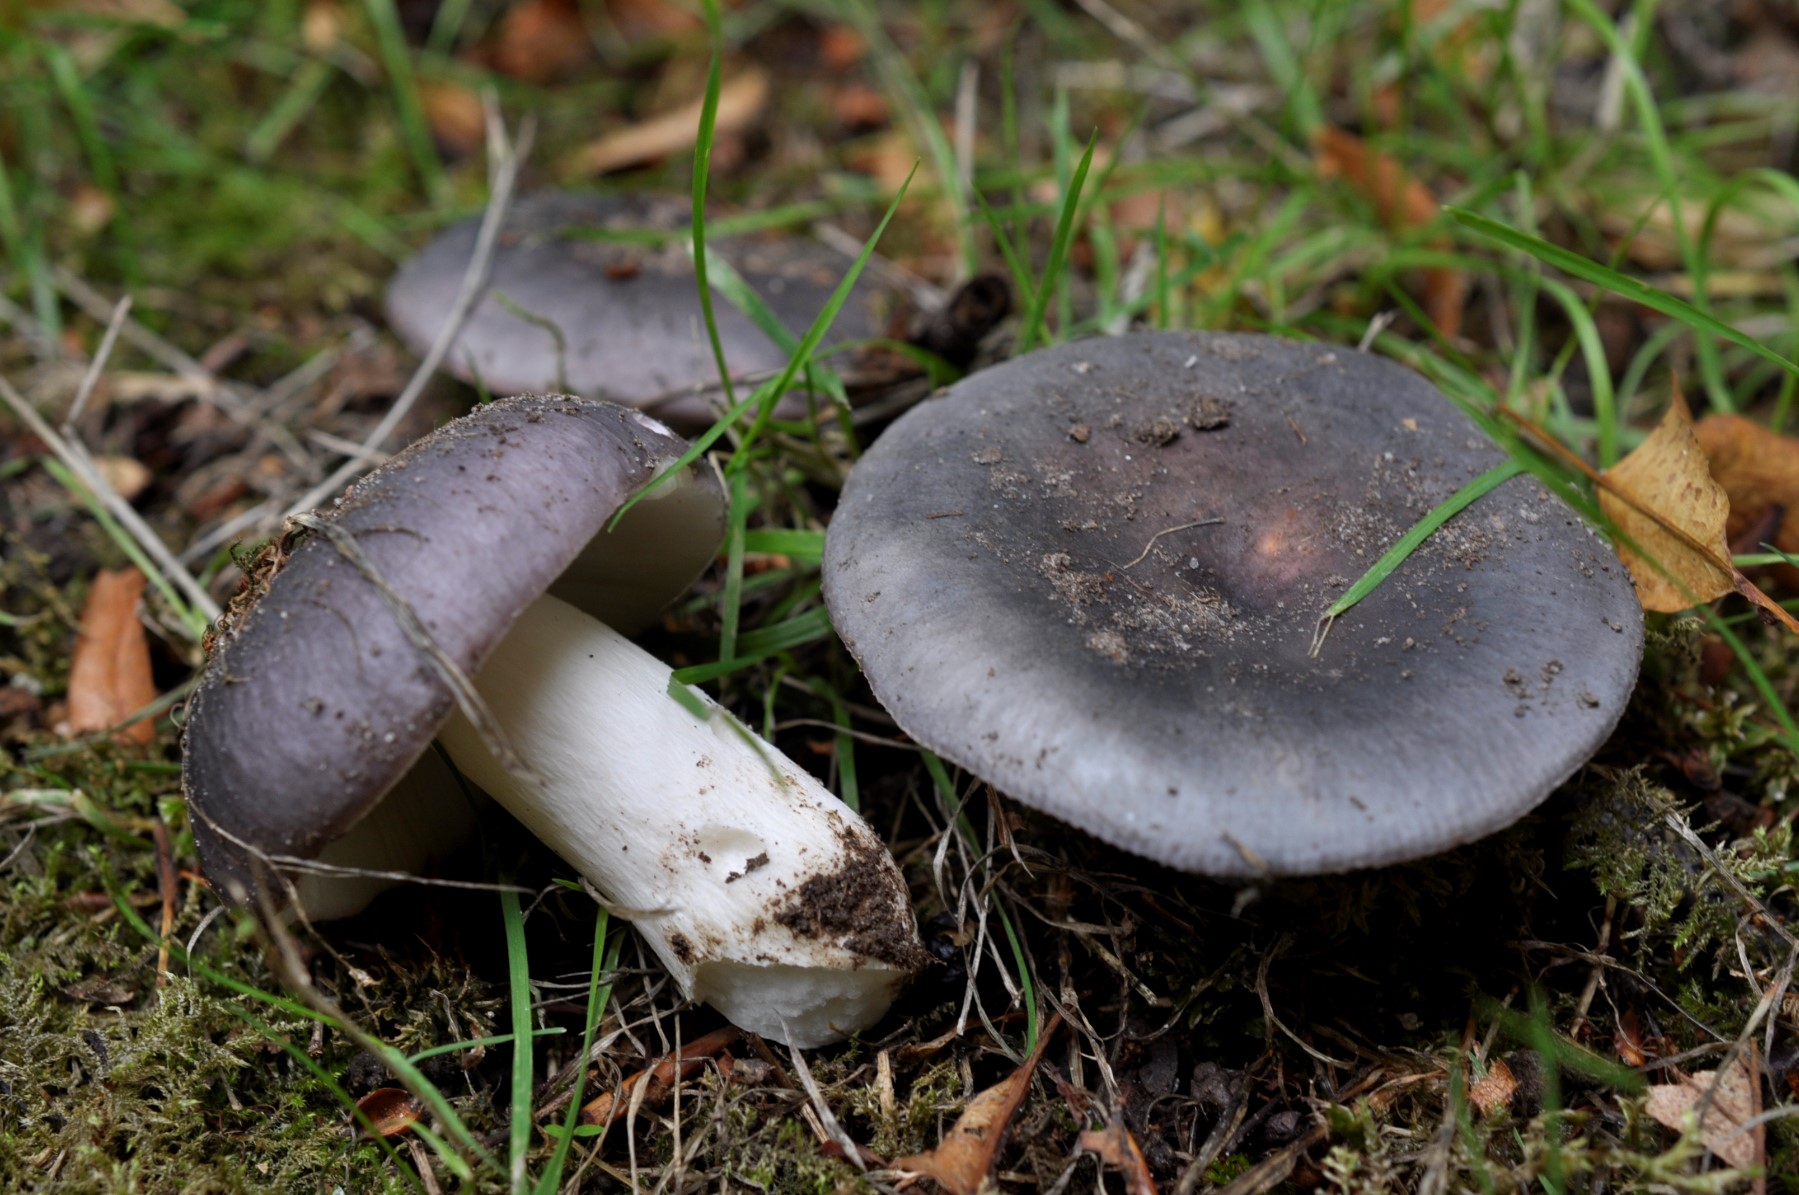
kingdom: Fungi
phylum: Basidiomycota
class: Agaricomycetes
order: Russulales
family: Russulaceae
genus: Russula
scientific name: Russula
